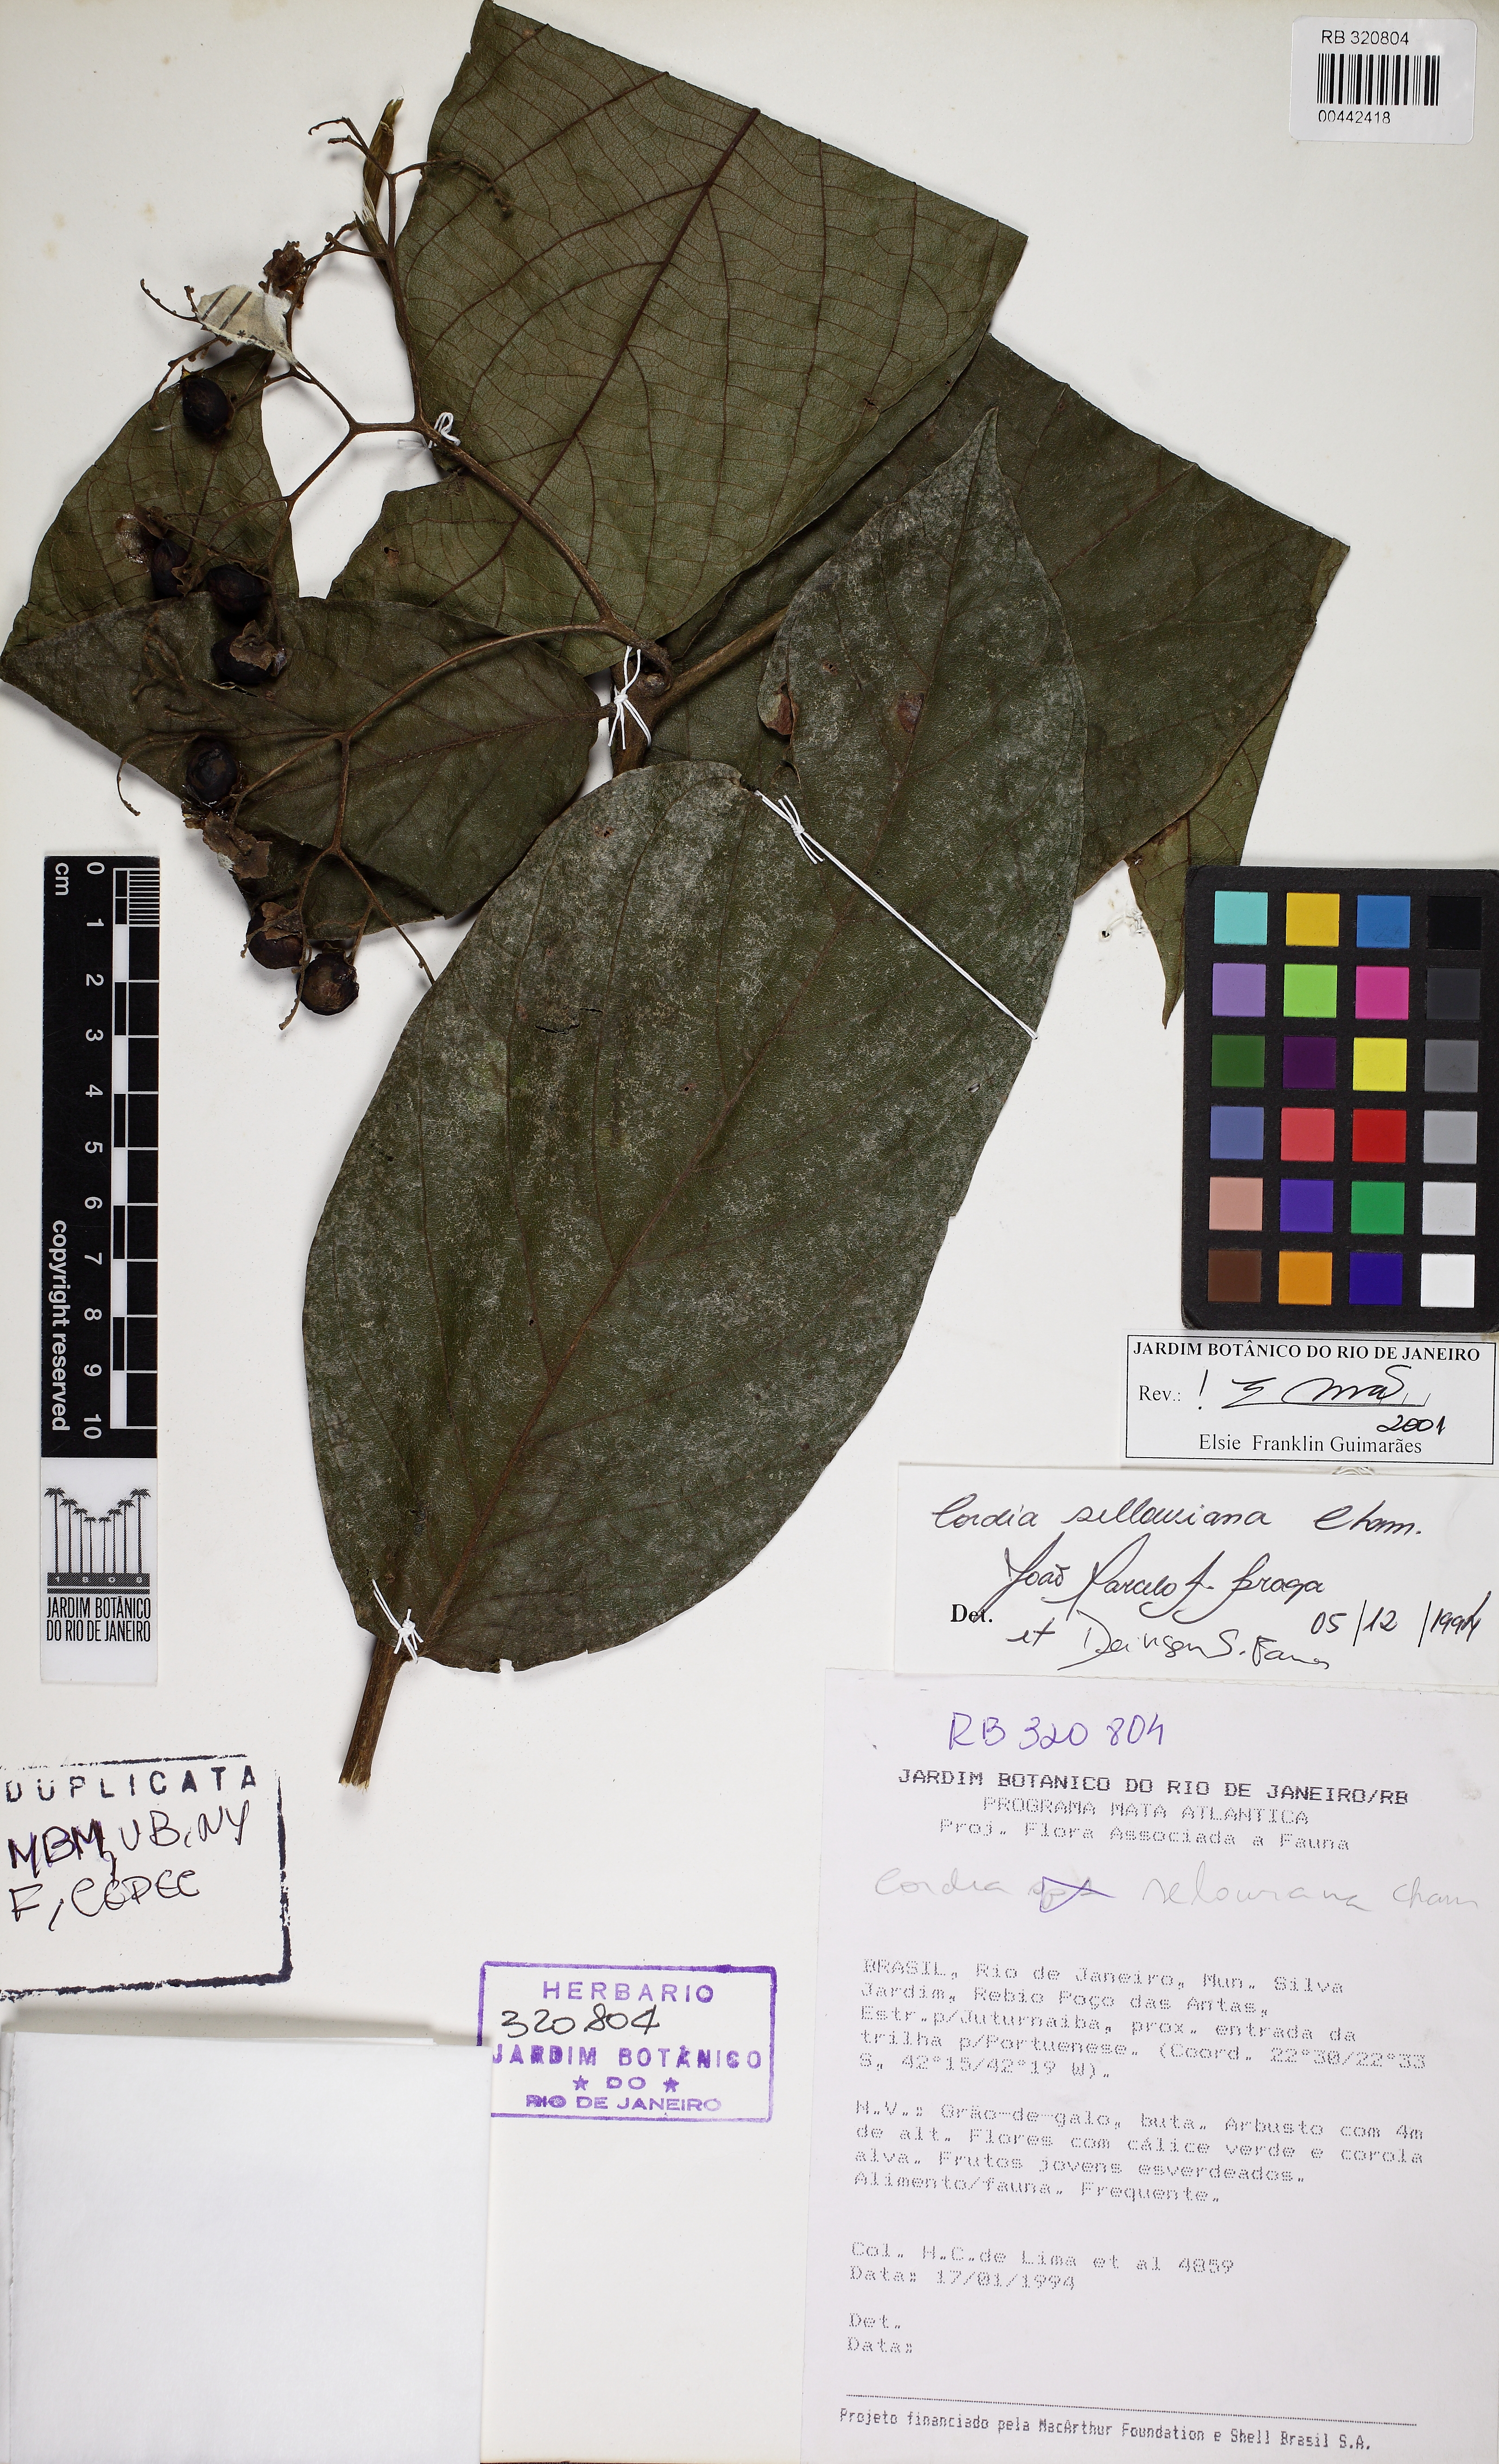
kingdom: Plantae
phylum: Tracheophyta
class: Magnoliopsida
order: Boraginales
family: Cordiaceae
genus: Cordia
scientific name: Cordia sellowiana
